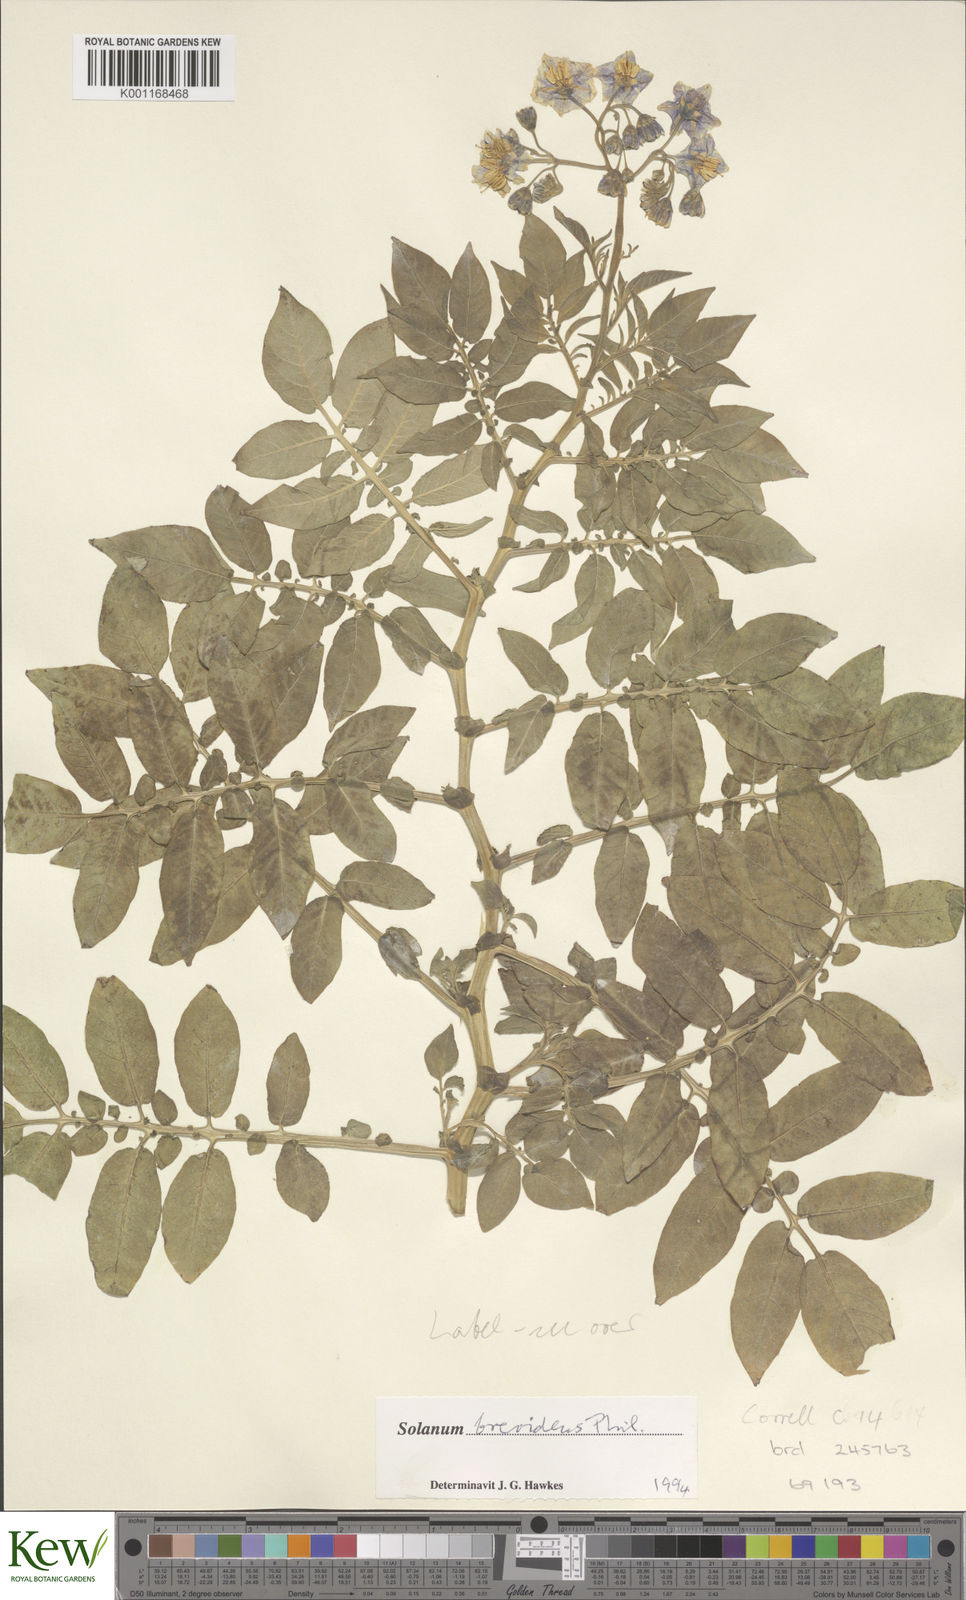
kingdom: Plantae
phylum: Tracheophyta
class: Magnoliopsida
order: Solanales
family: Solanaceae
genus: Solanum
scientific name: Solanum palustre
